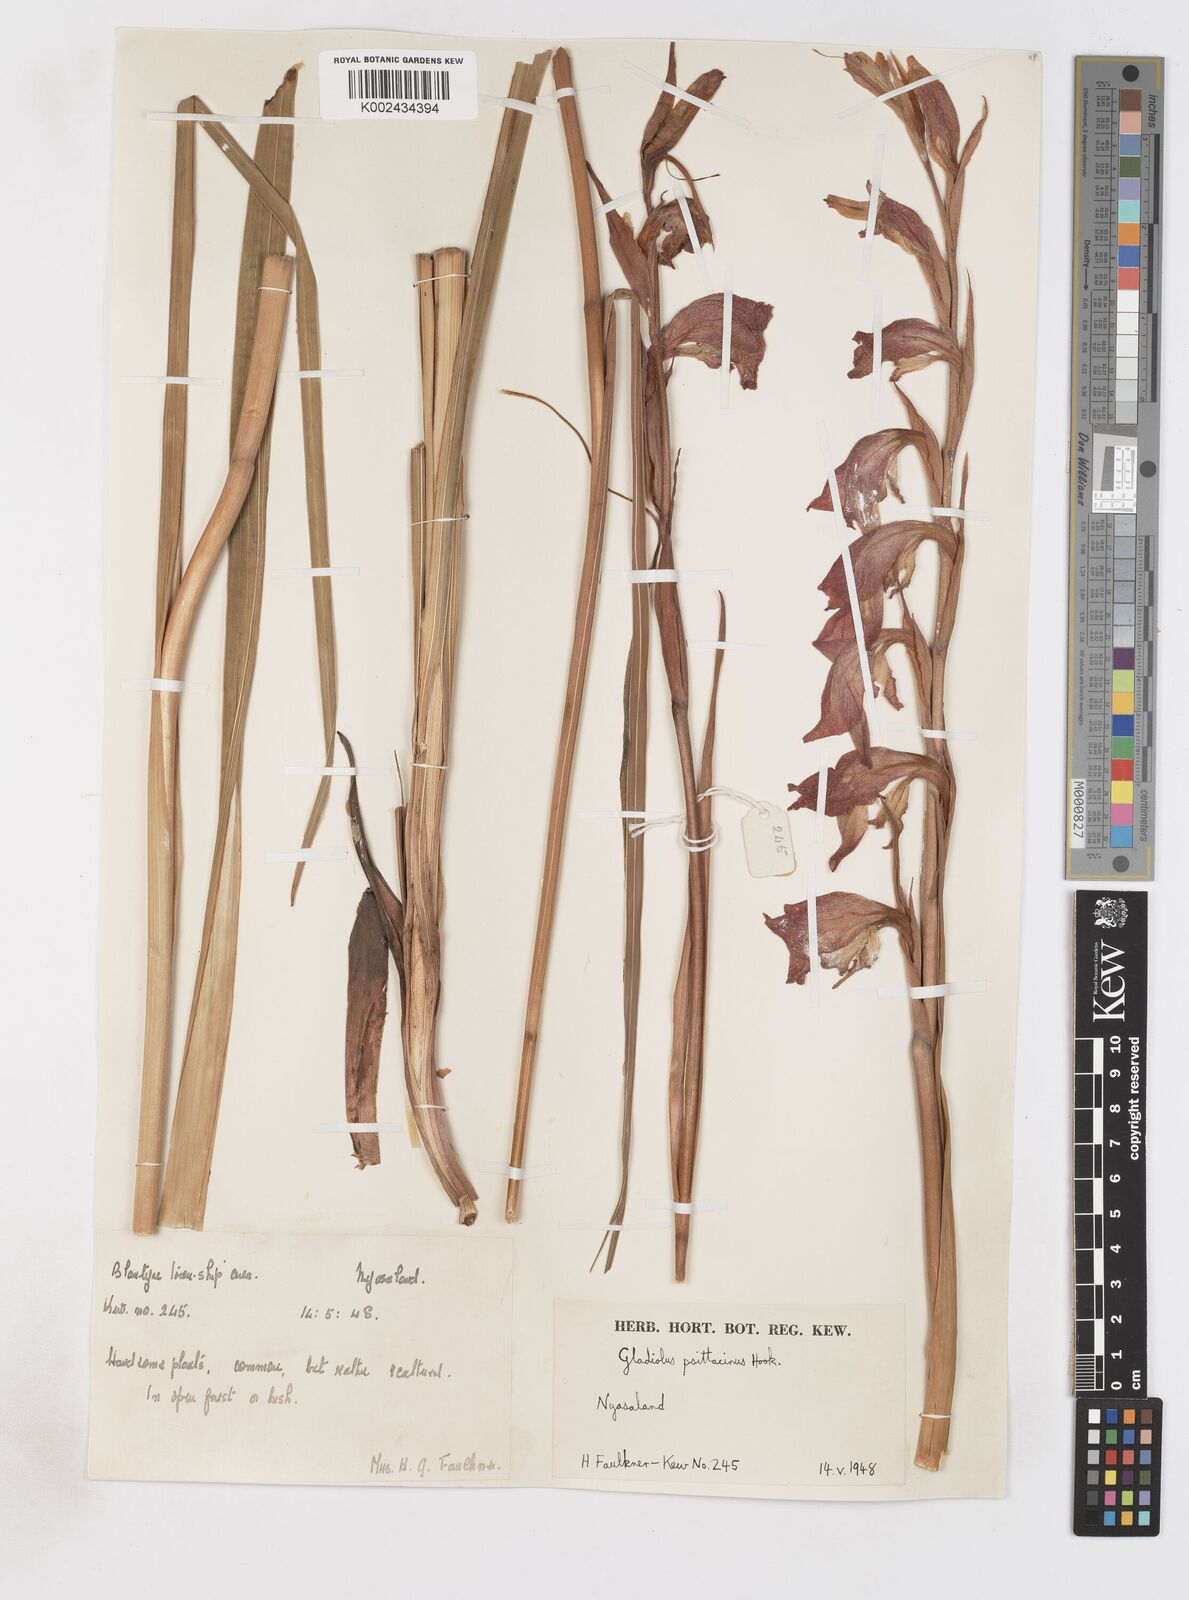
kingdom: Plantae
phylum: Tracheophyta
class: Liliopsida
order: Asparagales
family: Iridaceae
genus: Gladiolus
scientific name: Gladiolus dalenii
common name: Cornflag
